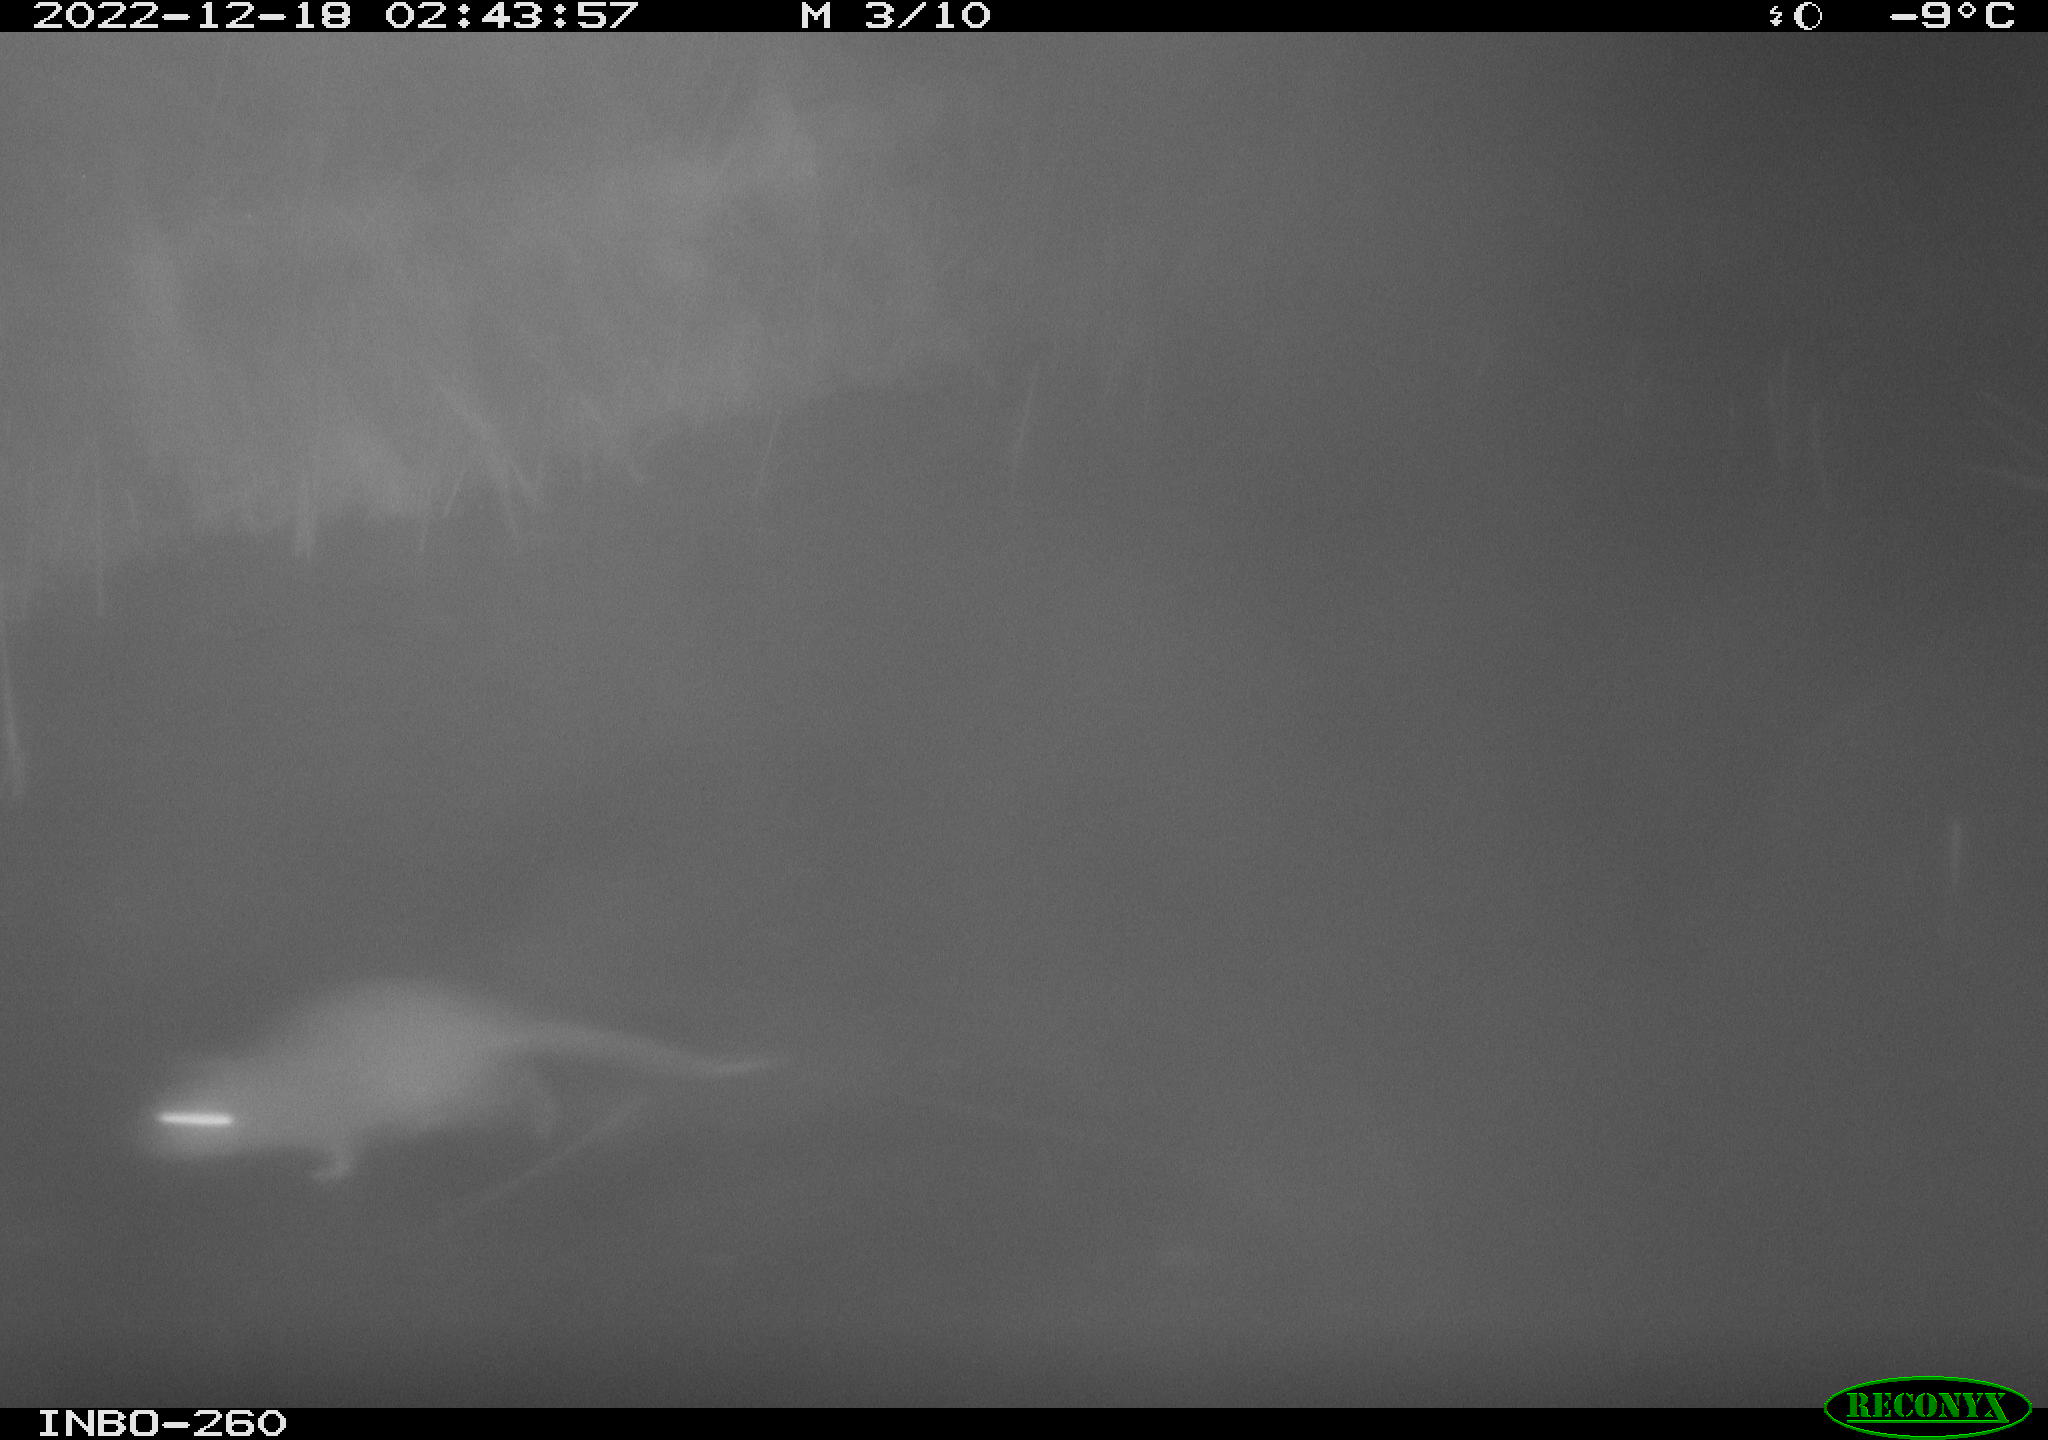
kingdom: Animalia
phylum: Chordata
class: Mammalia
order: Rodentia
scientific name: Rodentia
